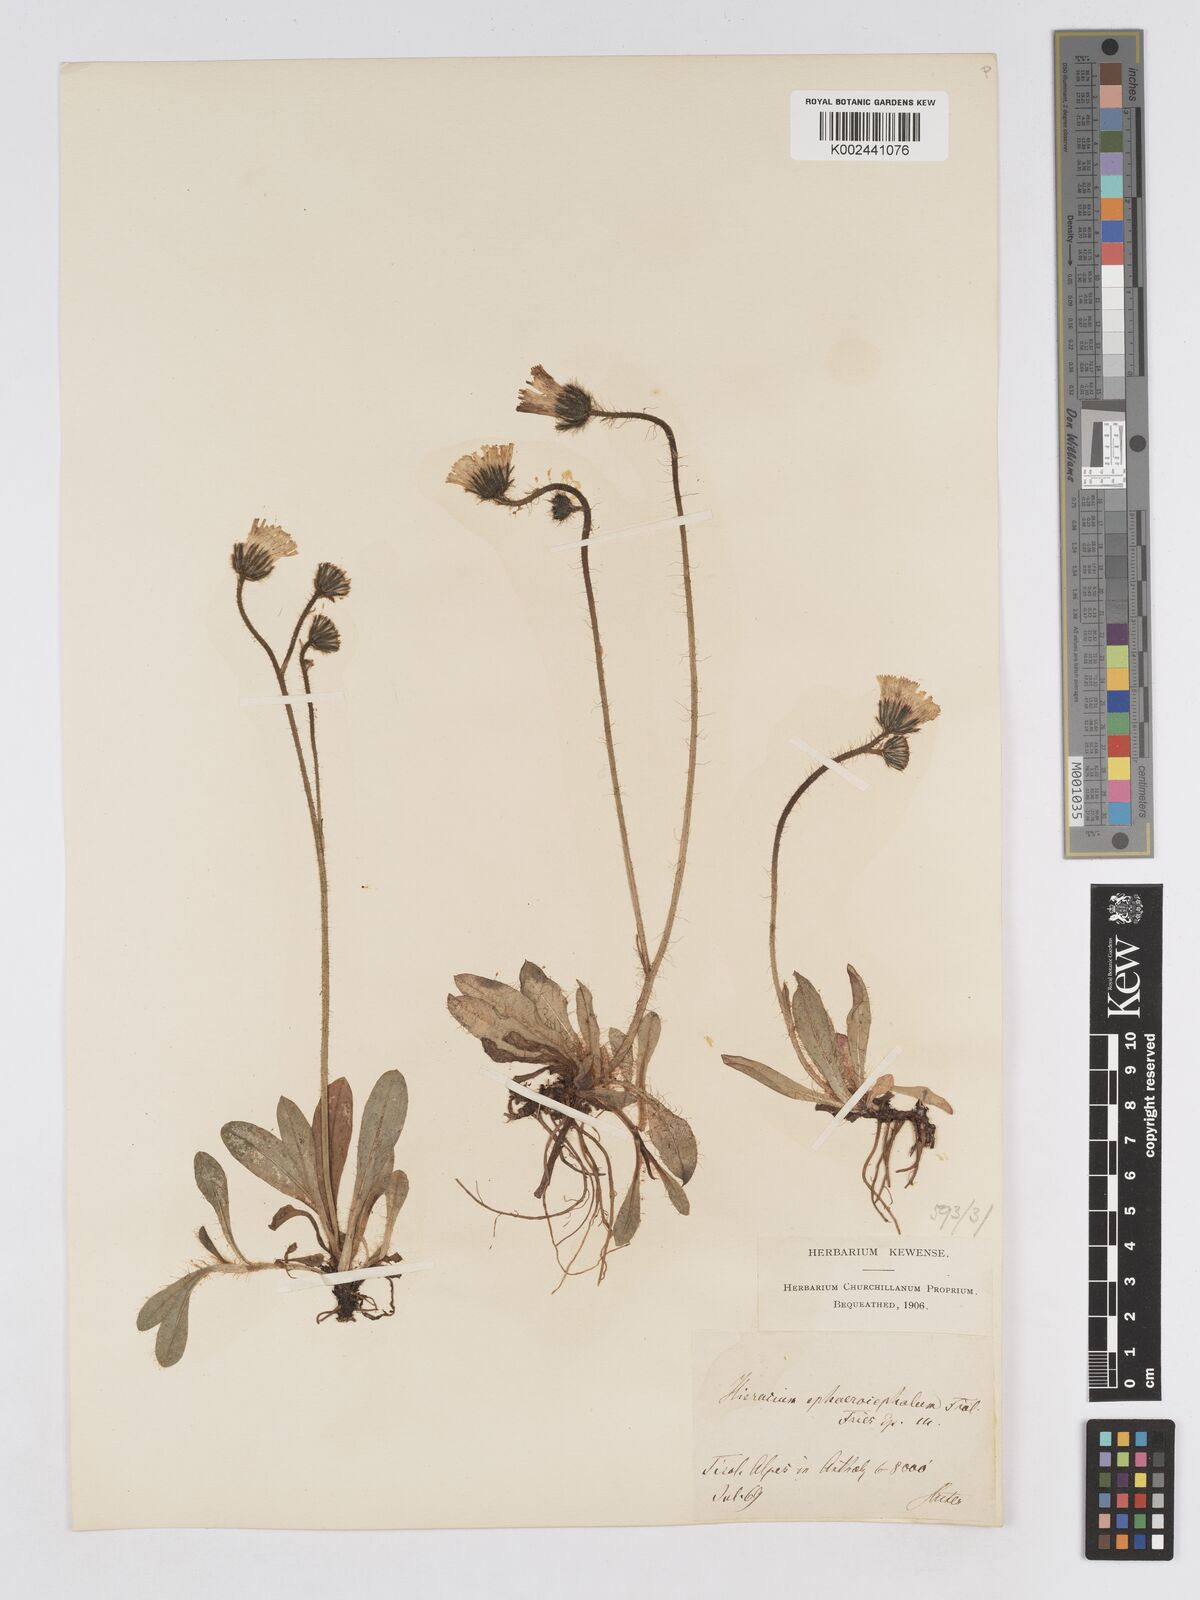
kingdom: Plantae
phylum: Tracheophyta
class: Magnoliopsida
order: Asterales
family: Asteraceae
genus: Pilosella
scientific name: Pilosella sphaerocephala
